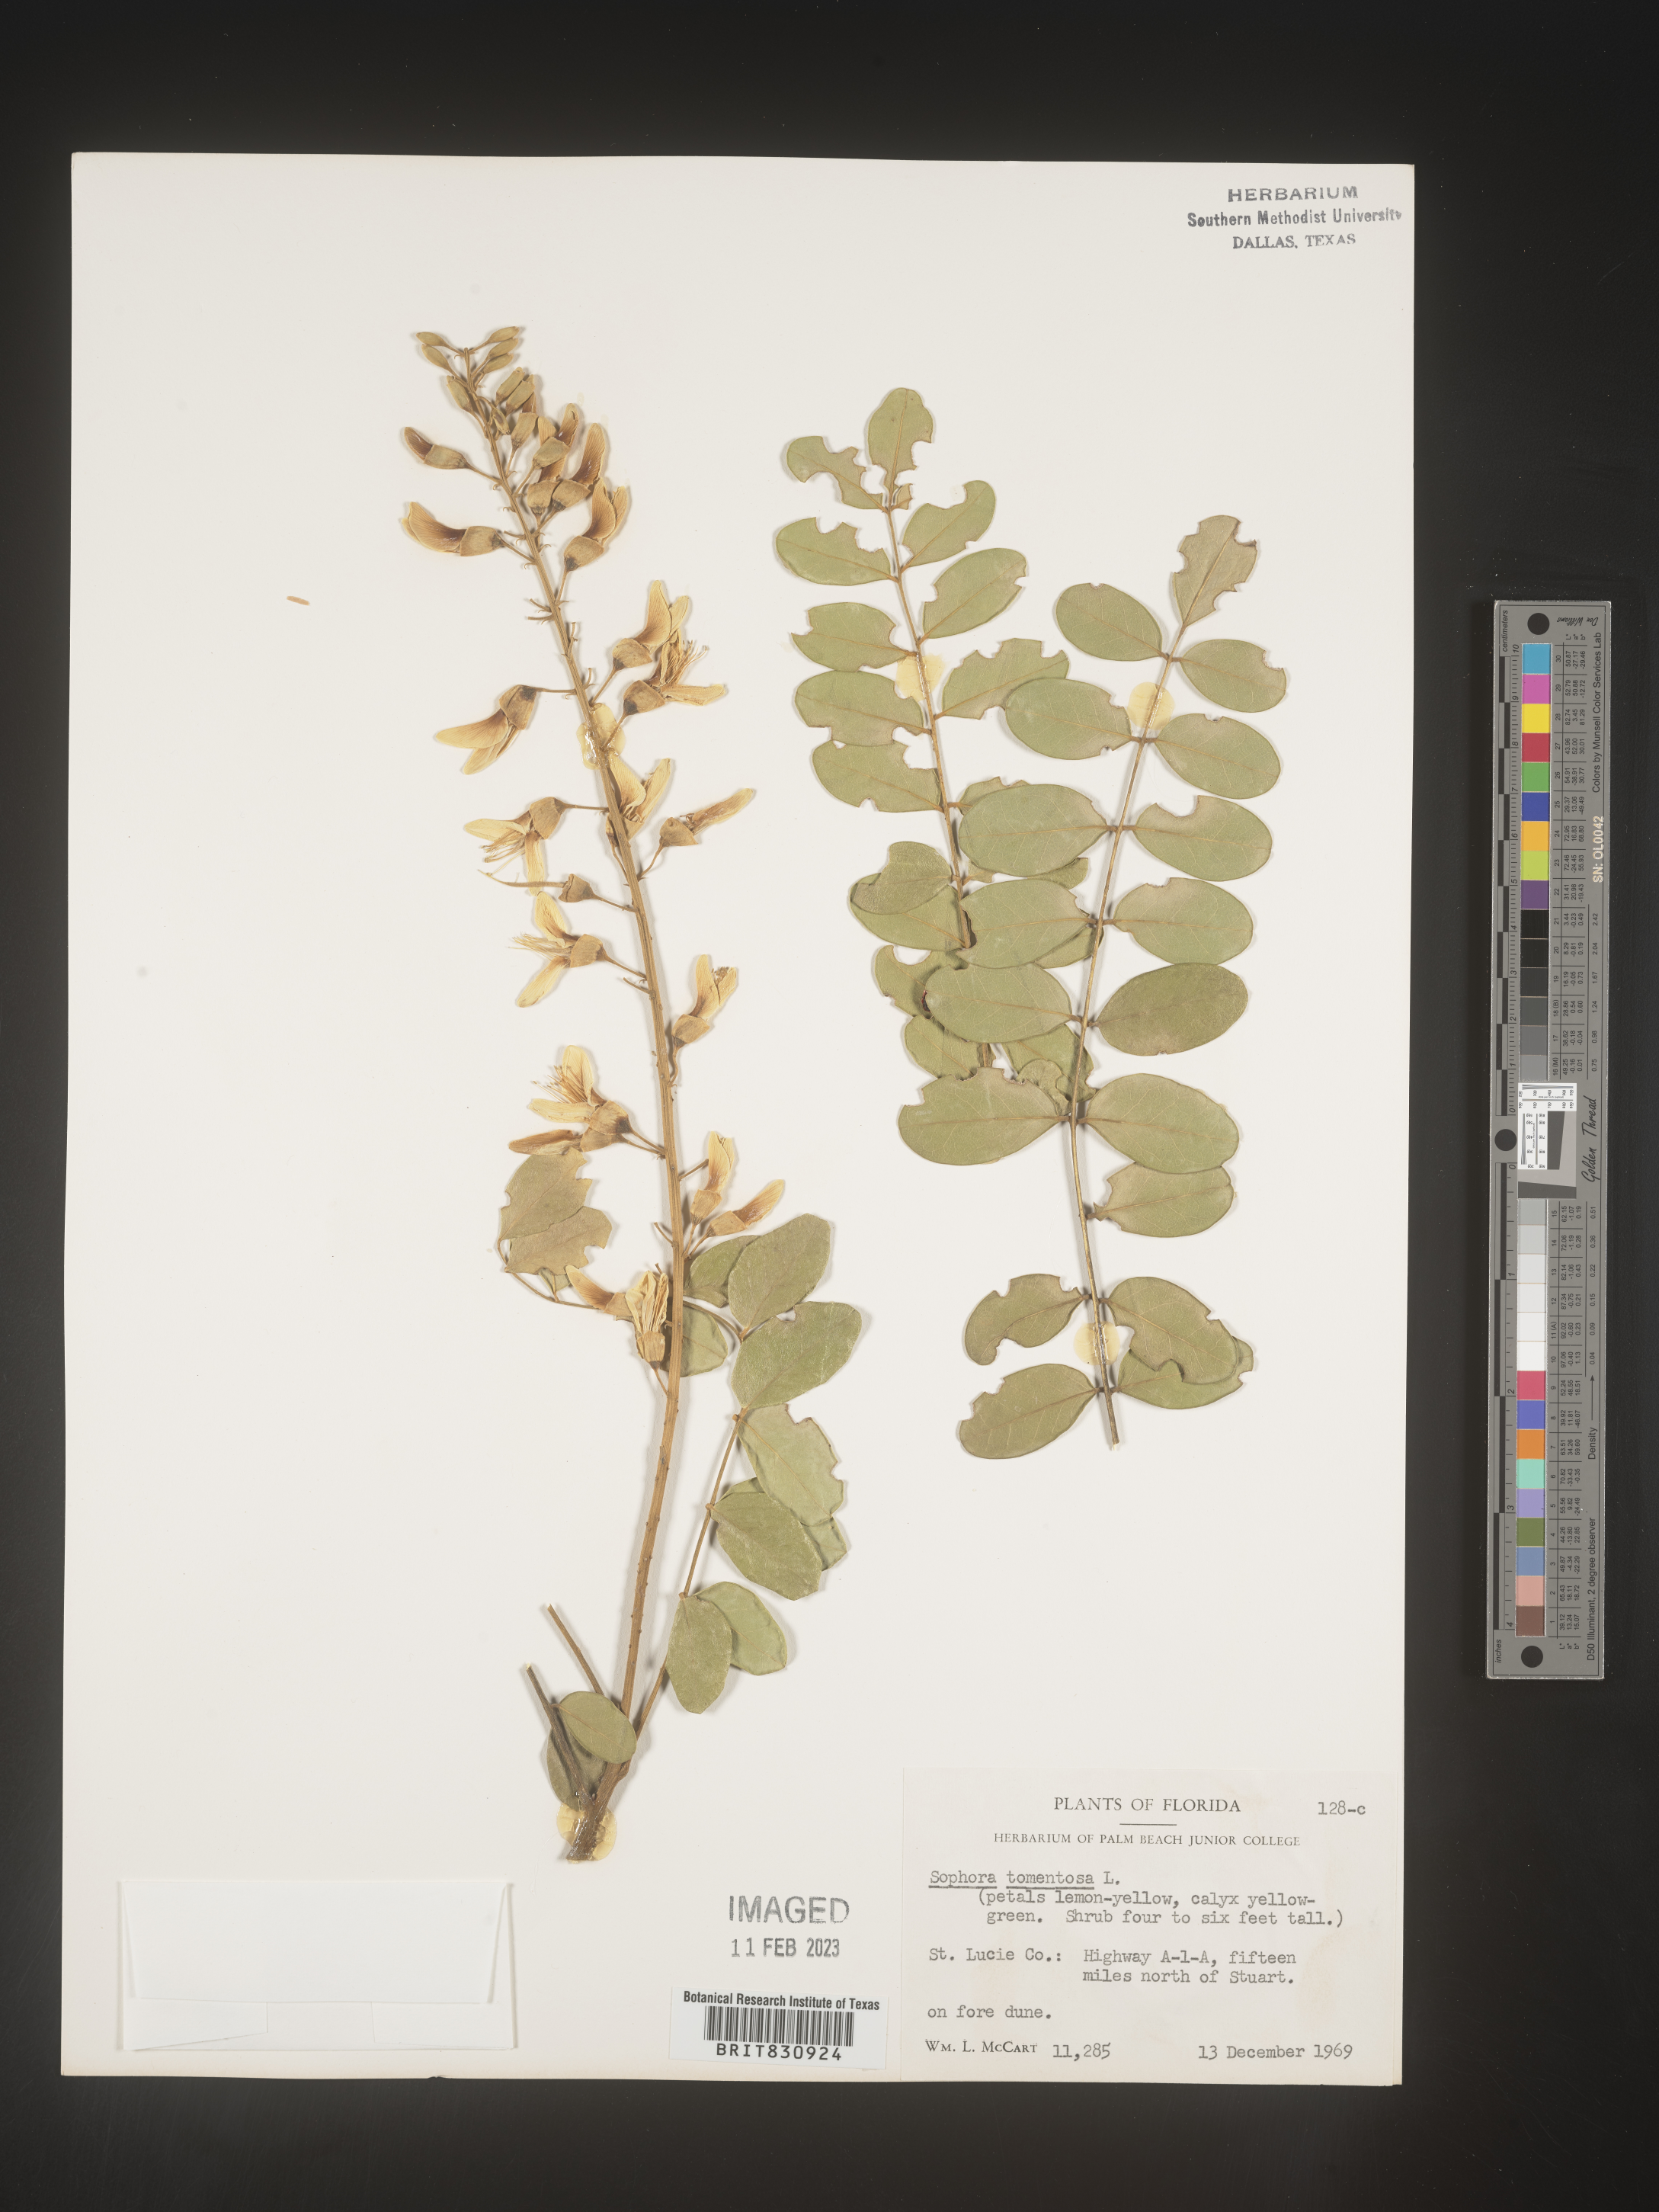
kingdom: Plantae
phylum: Tracheophyta
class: Magnoliopsida
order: Fabales
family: Fabaceae
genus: Sophora
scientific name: Sophora
